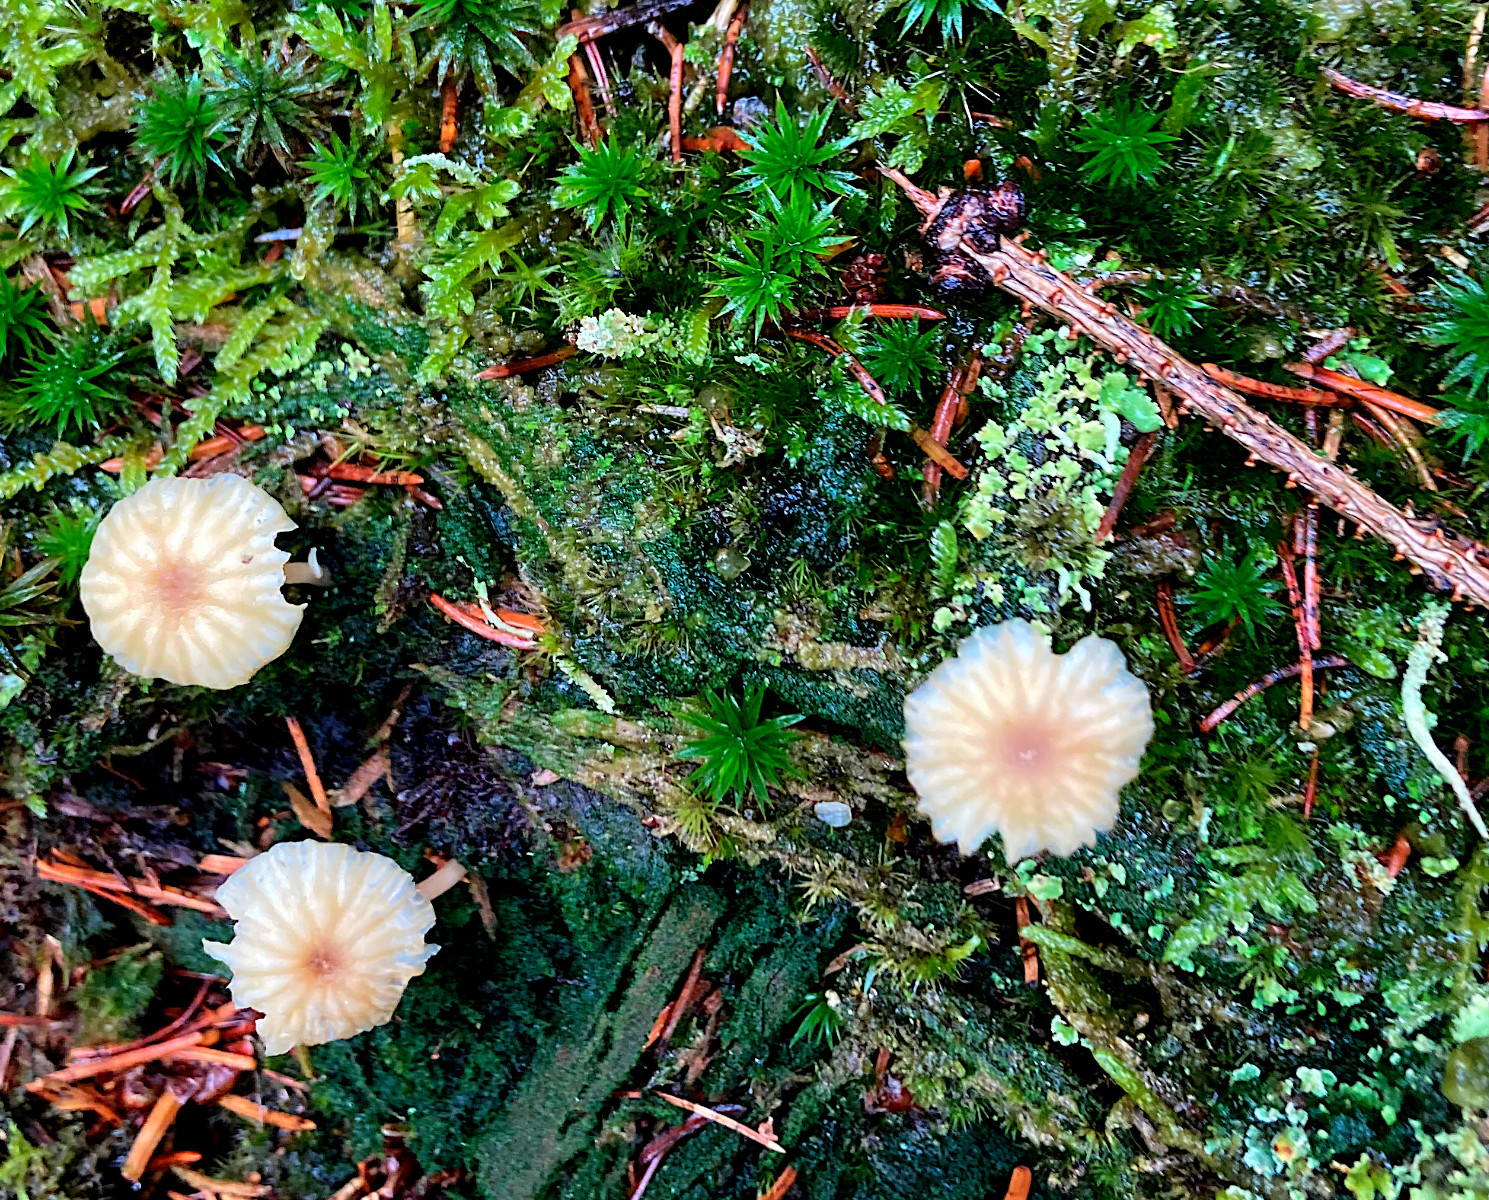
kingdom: Fungi
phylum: Basidiomycota
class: Agaricomycetes
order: Agaricales
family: Hygrophoraceae
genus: Lichenomphalia
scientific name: Lichenomphalia umbellifera
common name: tørve-lavhat
